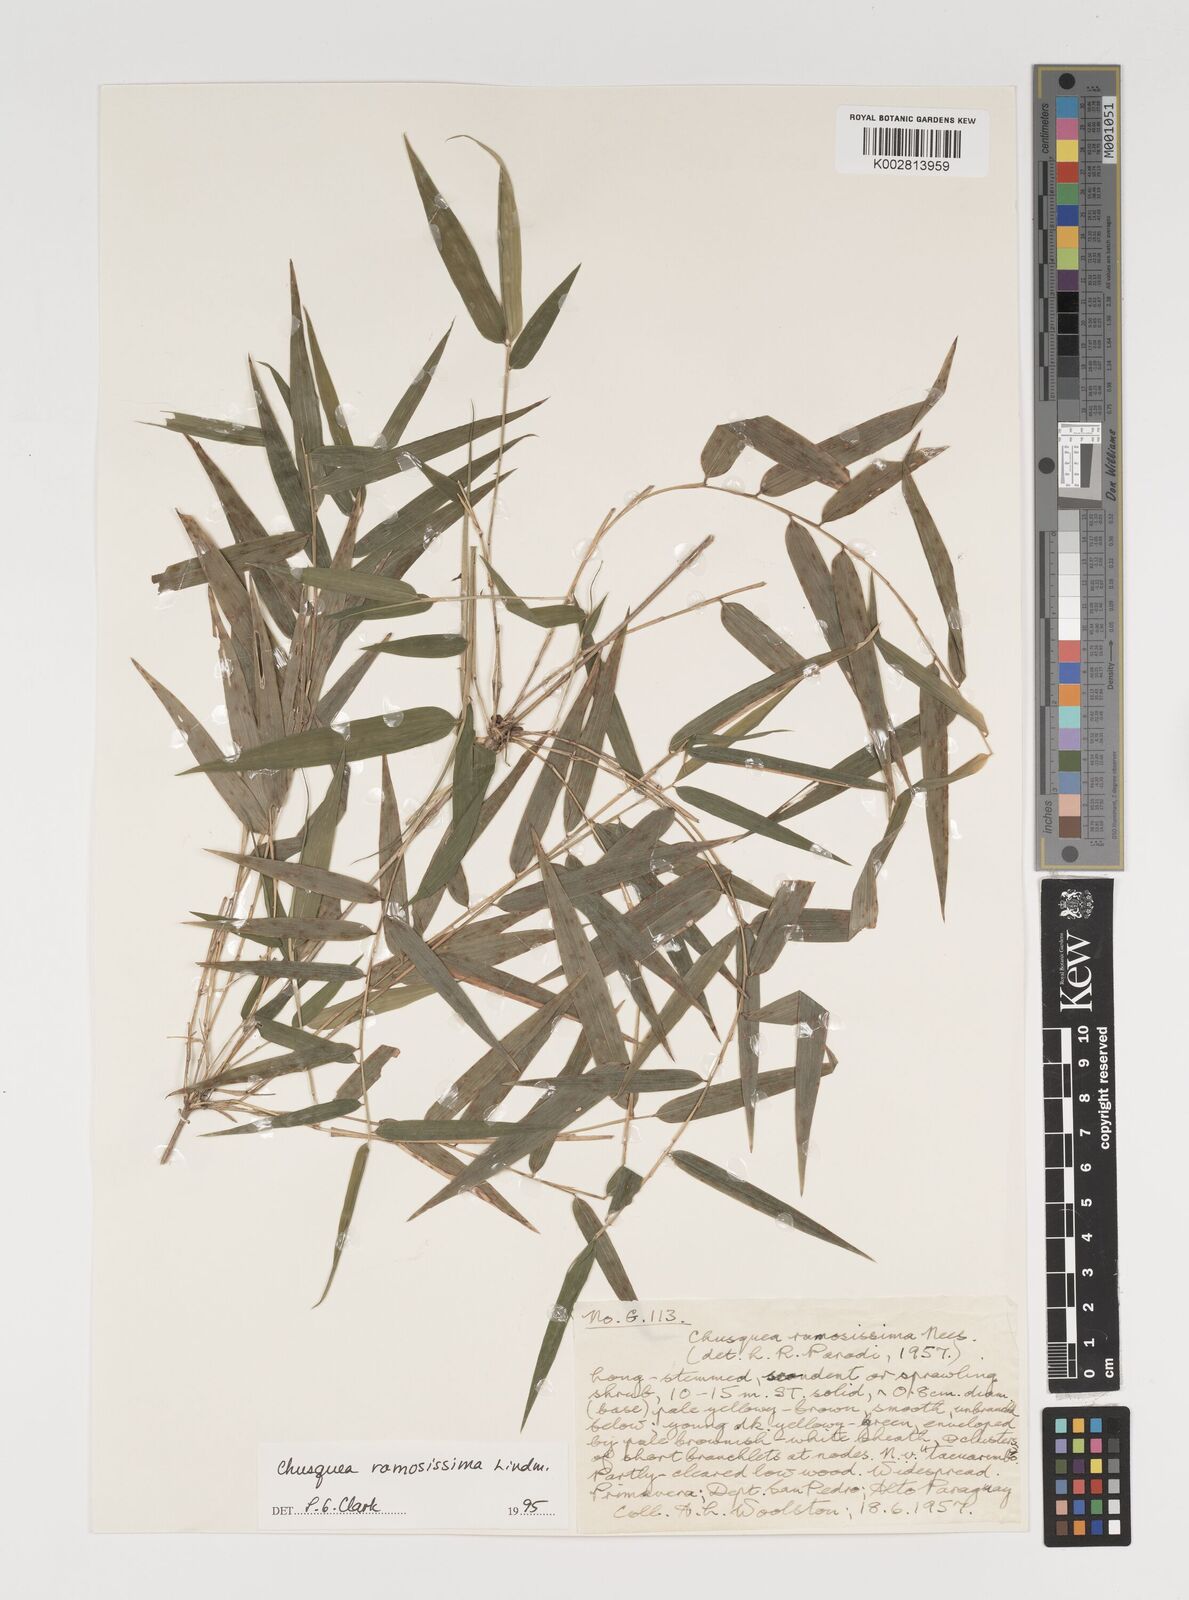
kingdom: Plantae
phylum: Tracheophyta
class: Liliopsida
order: Poales
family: Poaceae
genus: Chusquea
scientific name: Chusquea ramosissima
